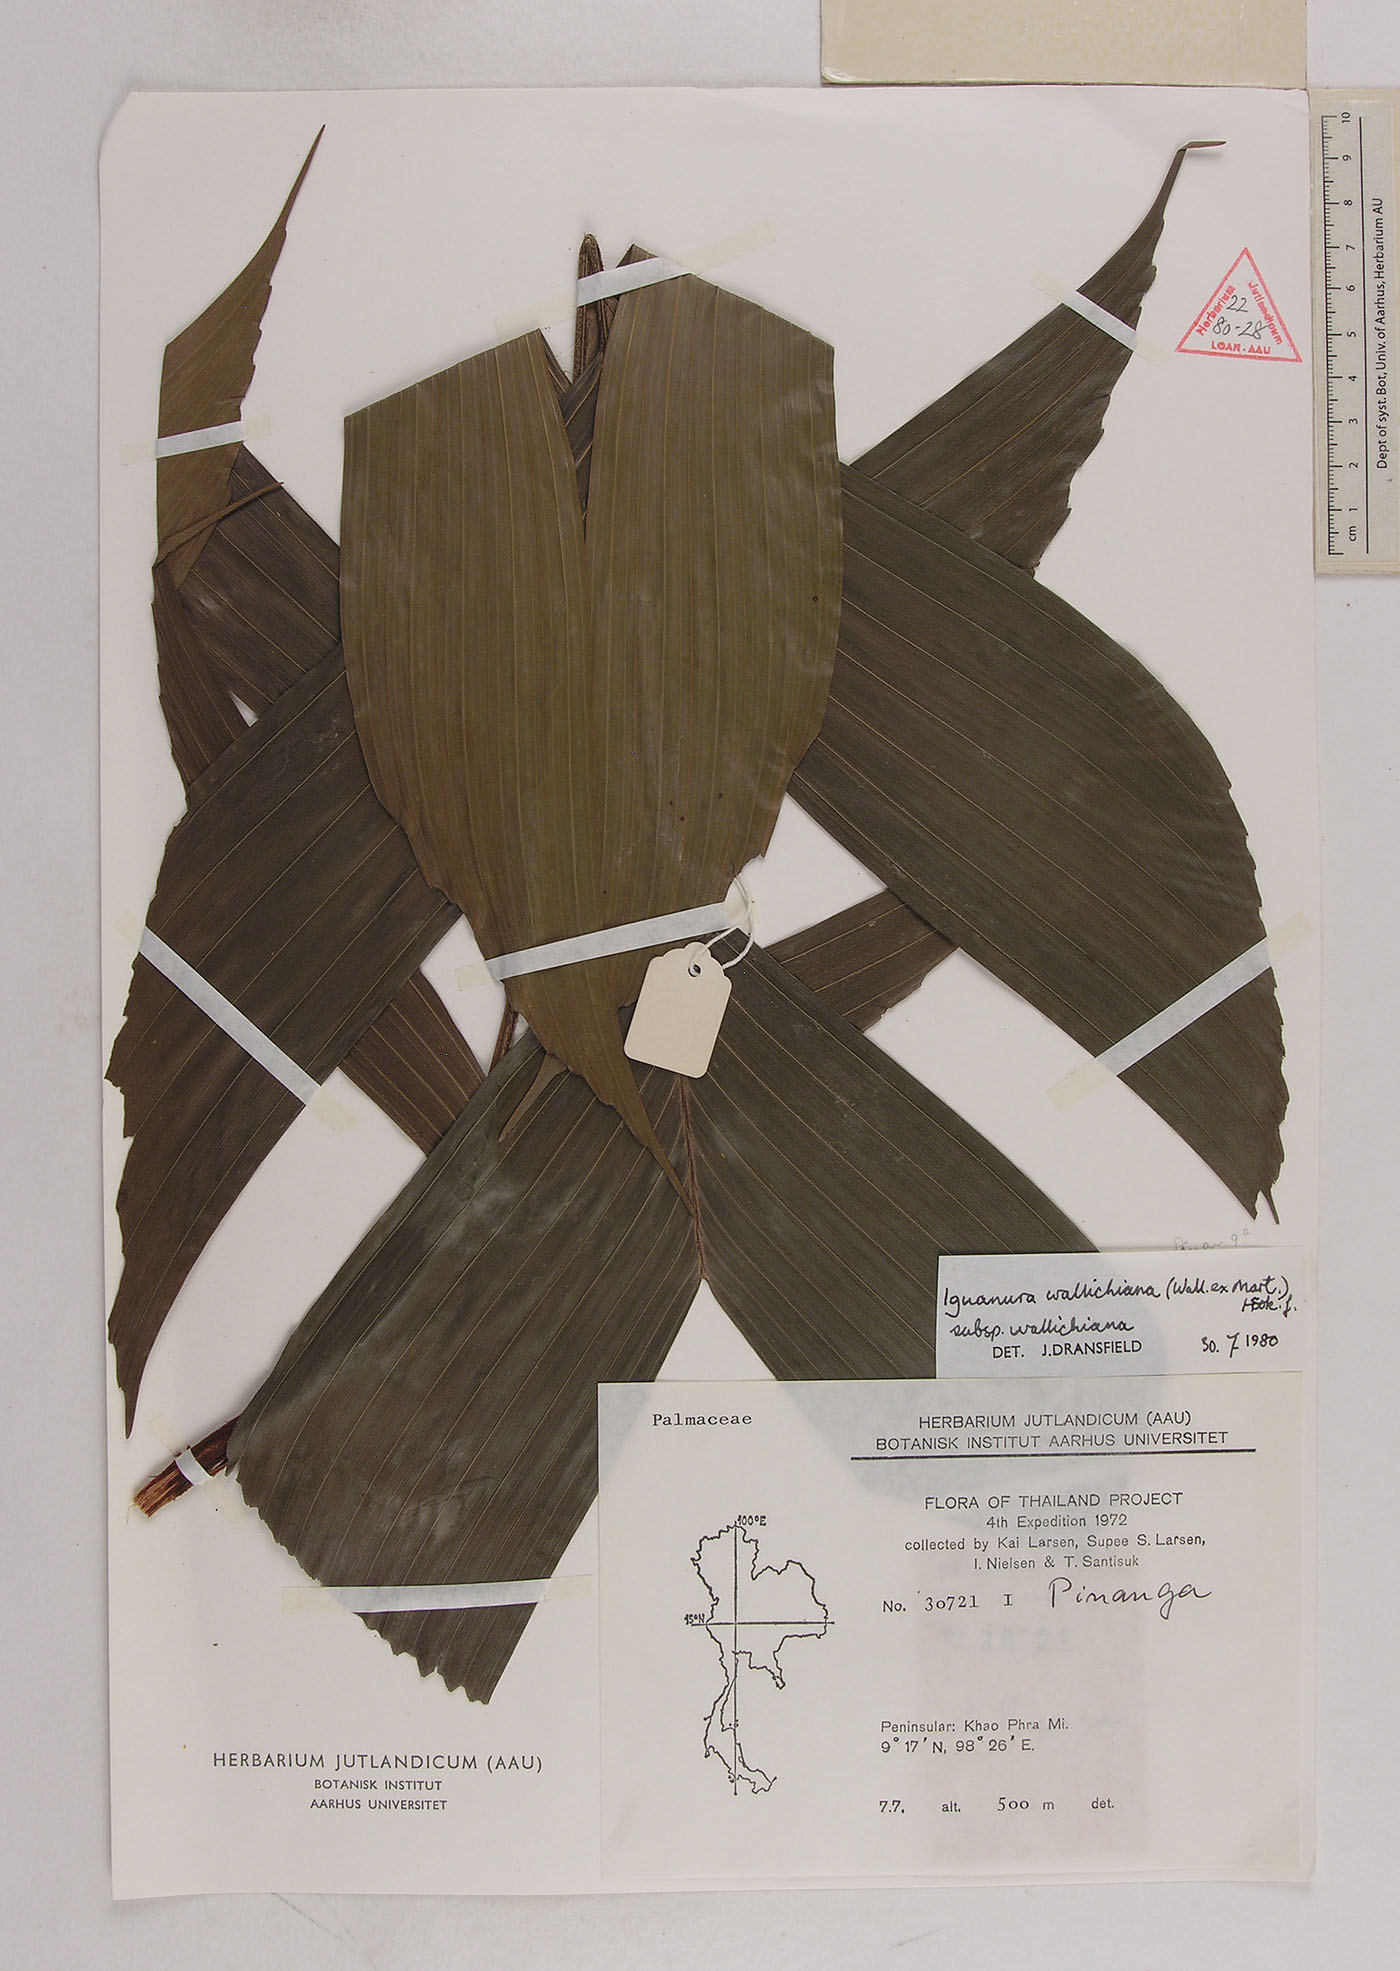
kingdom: Plantae
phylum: Tracheophyta
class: Liliopsida
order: Arecales
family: Arecaceae
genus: Iguanura
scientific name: Iguanura wallichiana
